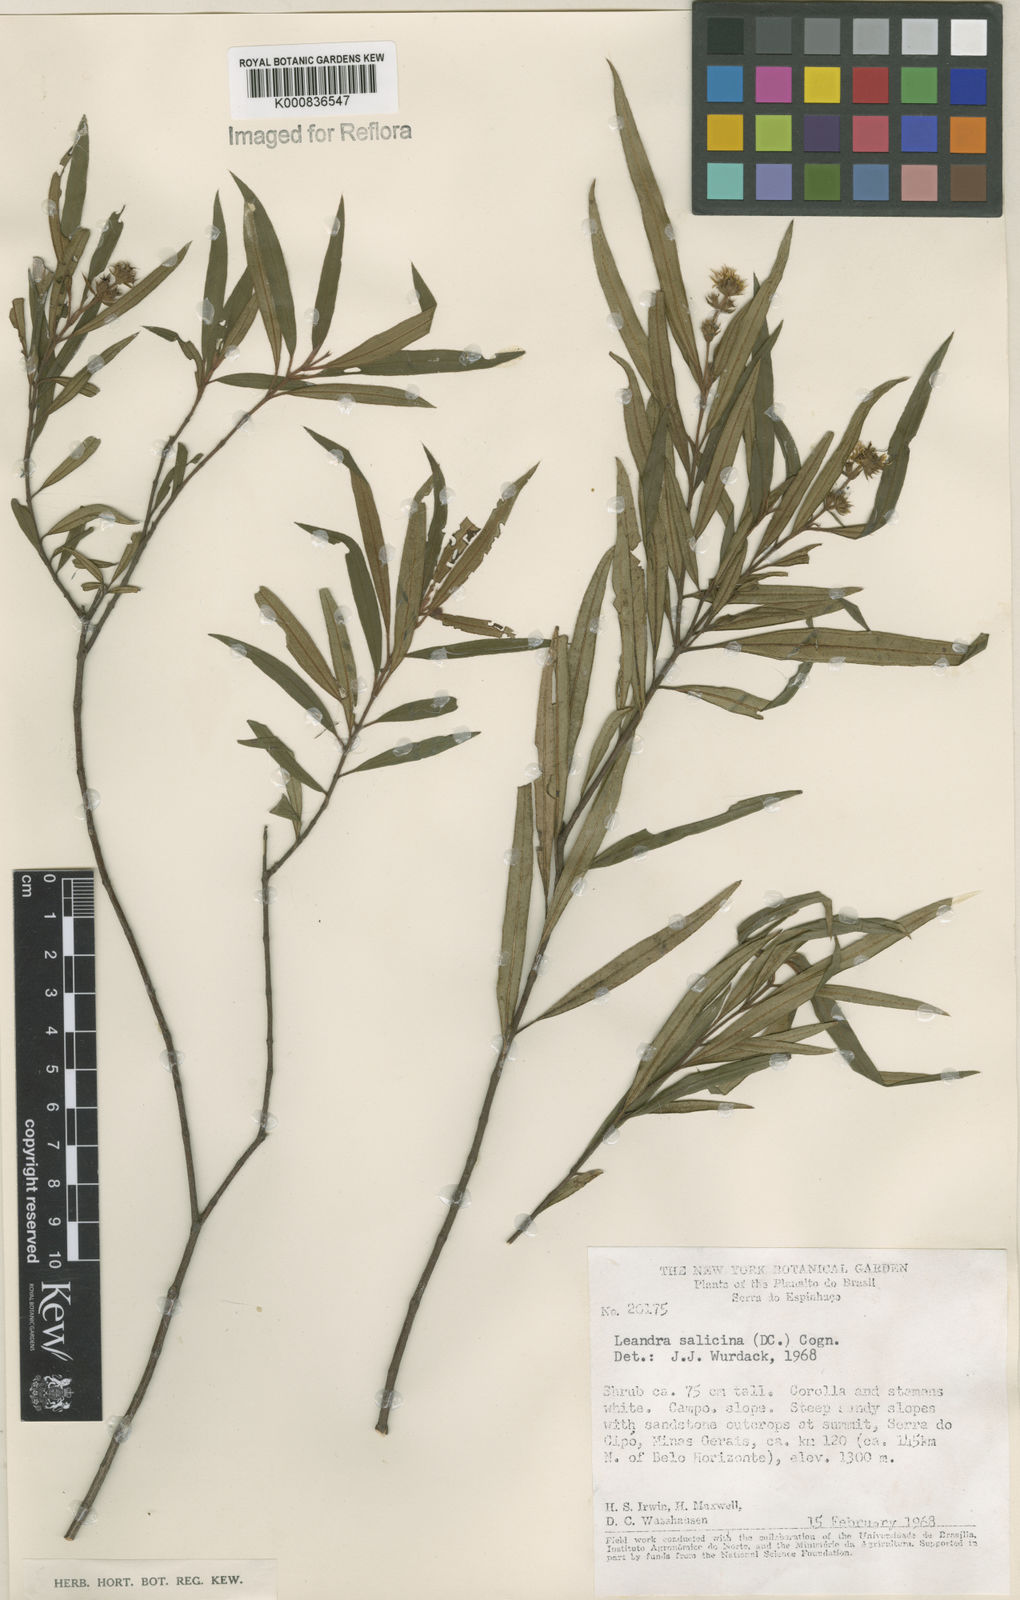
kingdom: Plantae
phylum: Tracheophyta
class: Magnoliopsida
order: Myrtales
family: Melastomataceae
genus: Miconia
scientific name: Miconia salicina
